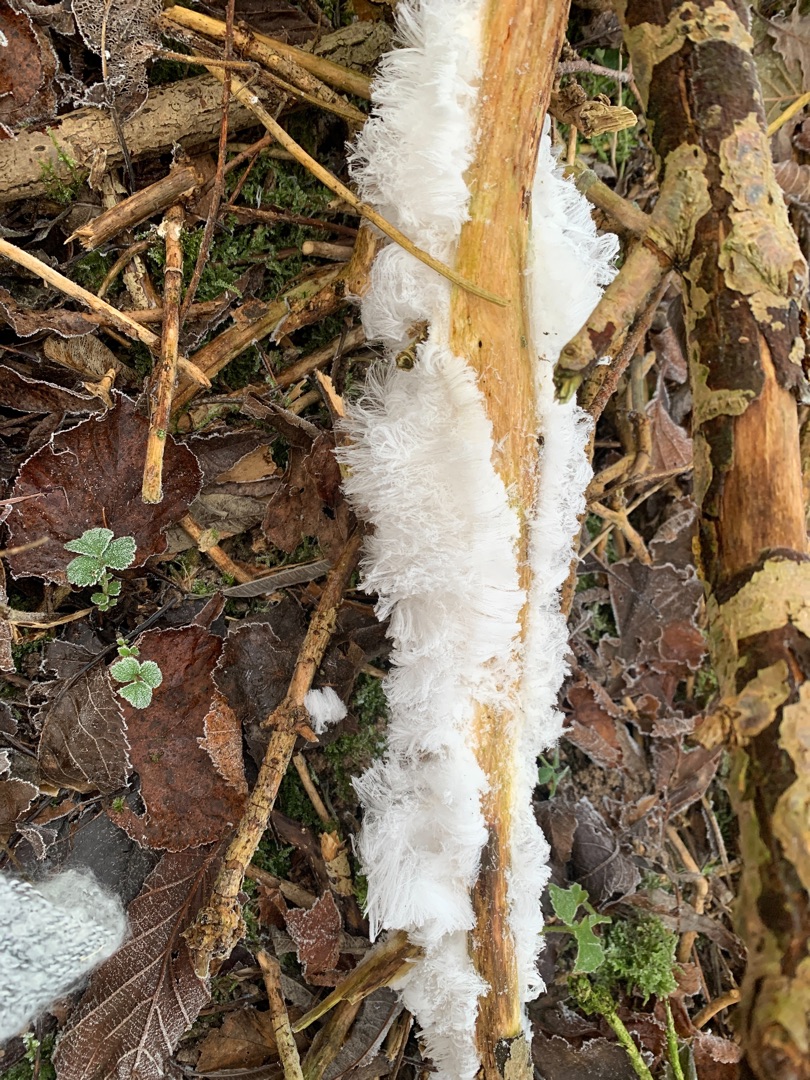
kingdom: Fungi
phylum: Basidiomycota
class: Tremellomycetes
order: Tremellales
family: Exidiaceae
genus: Exidiopsis
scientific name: Exidiopsis effusa
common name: Smuk bævrehinde
